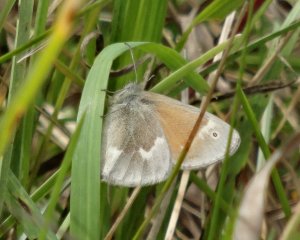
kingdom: Animalia
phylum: Arthropoda
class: Insecta
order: Lepidoptera
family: Nymphalidae
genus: Coenonympha
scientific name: Coenonympha tullia
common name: Large Heath
